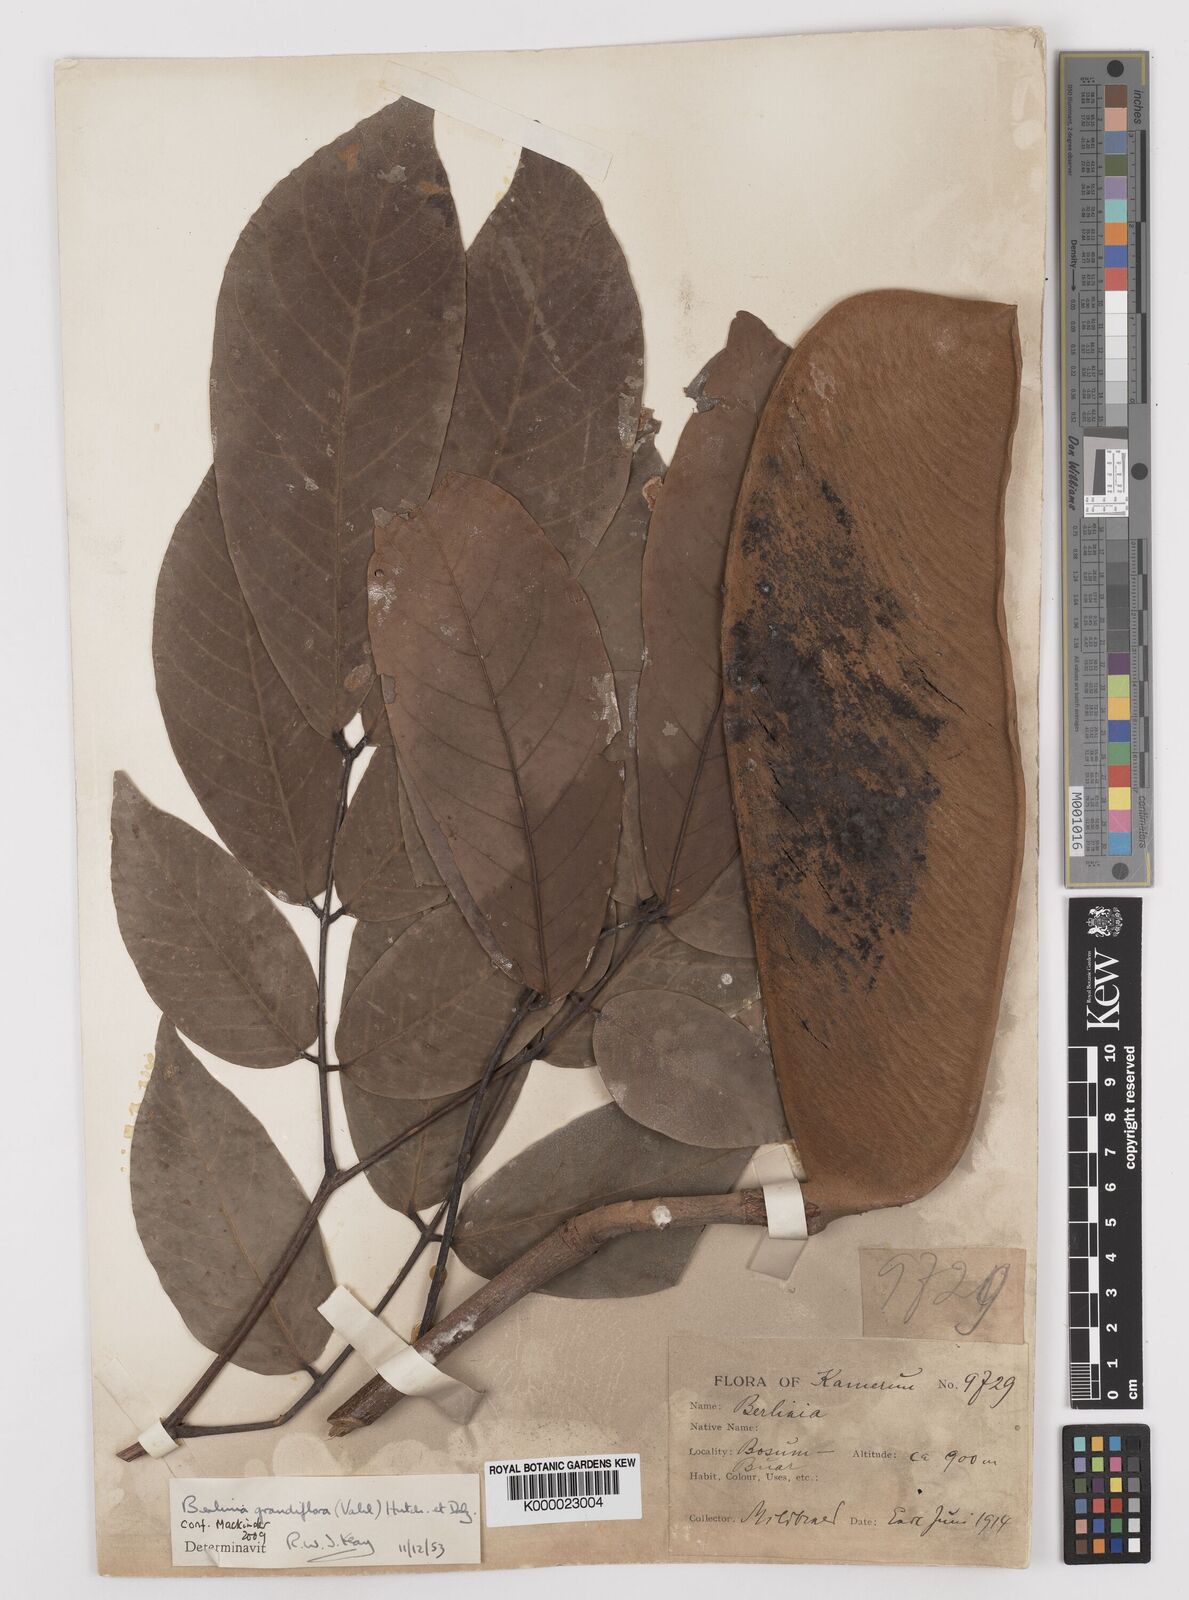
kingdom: Plantae
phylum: Tracheophyta
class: Magnoliopsida
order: Fabales
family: Fabaceae
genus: Berlinia
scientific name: Berlinia grandiflora
